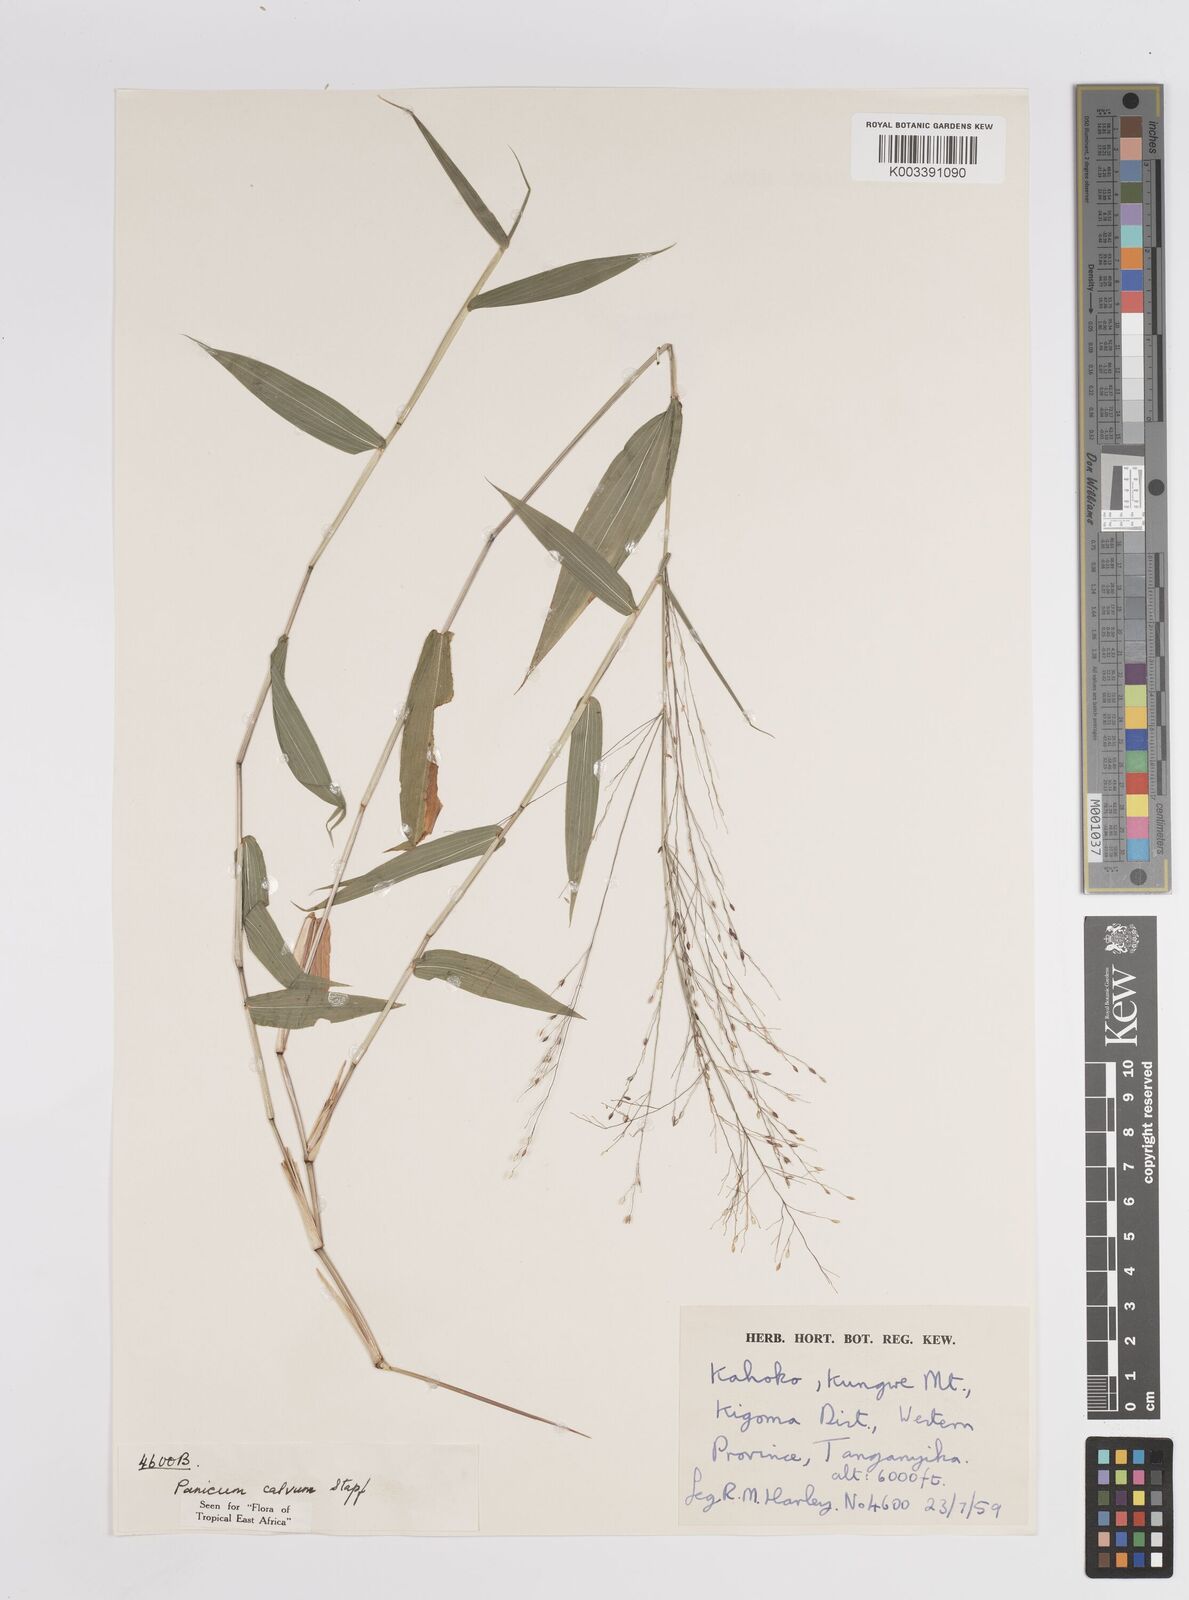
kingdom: Plantae
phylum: Tracheophyta
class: Liliopsida
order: Poales
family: Poaceae
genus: Panicum
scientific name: Panicum calvum
